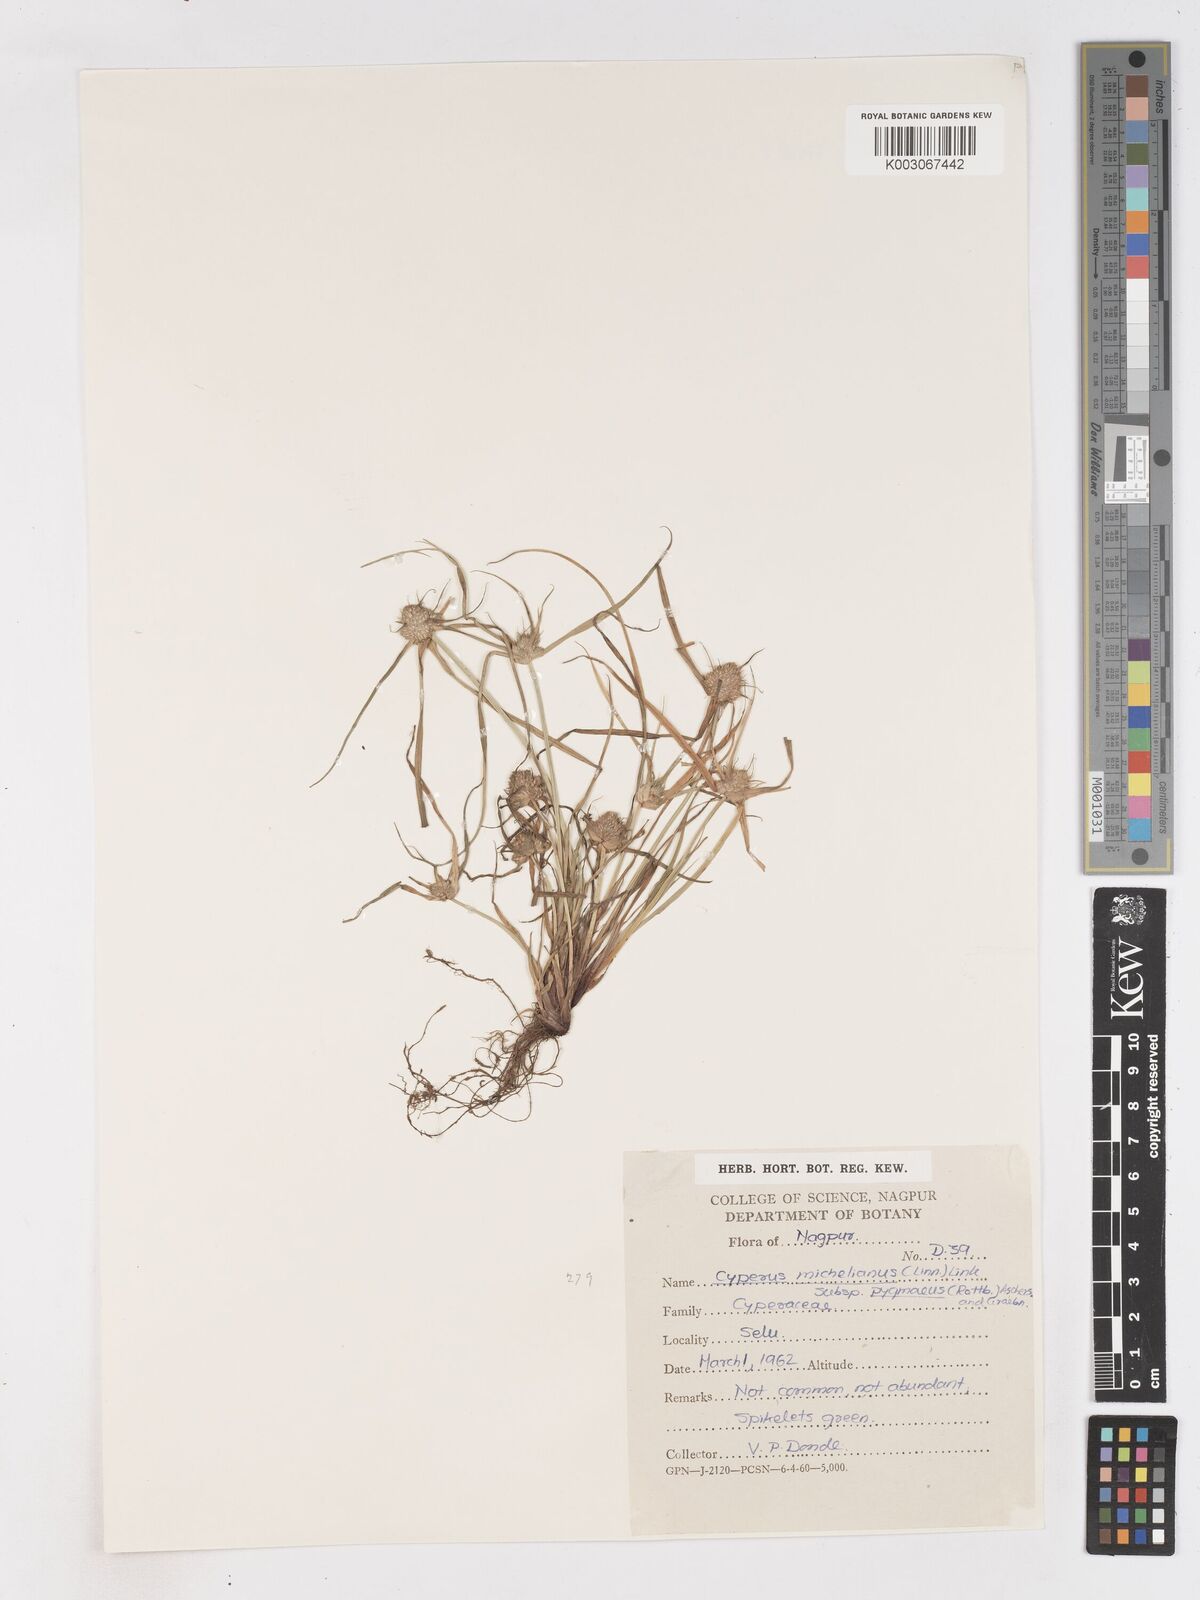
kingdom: Plantae
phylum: Tracheophyta
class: Liliopsida
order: Poales
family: Cyperaceae
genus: Cyperus
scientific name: Cyperus michelianus
